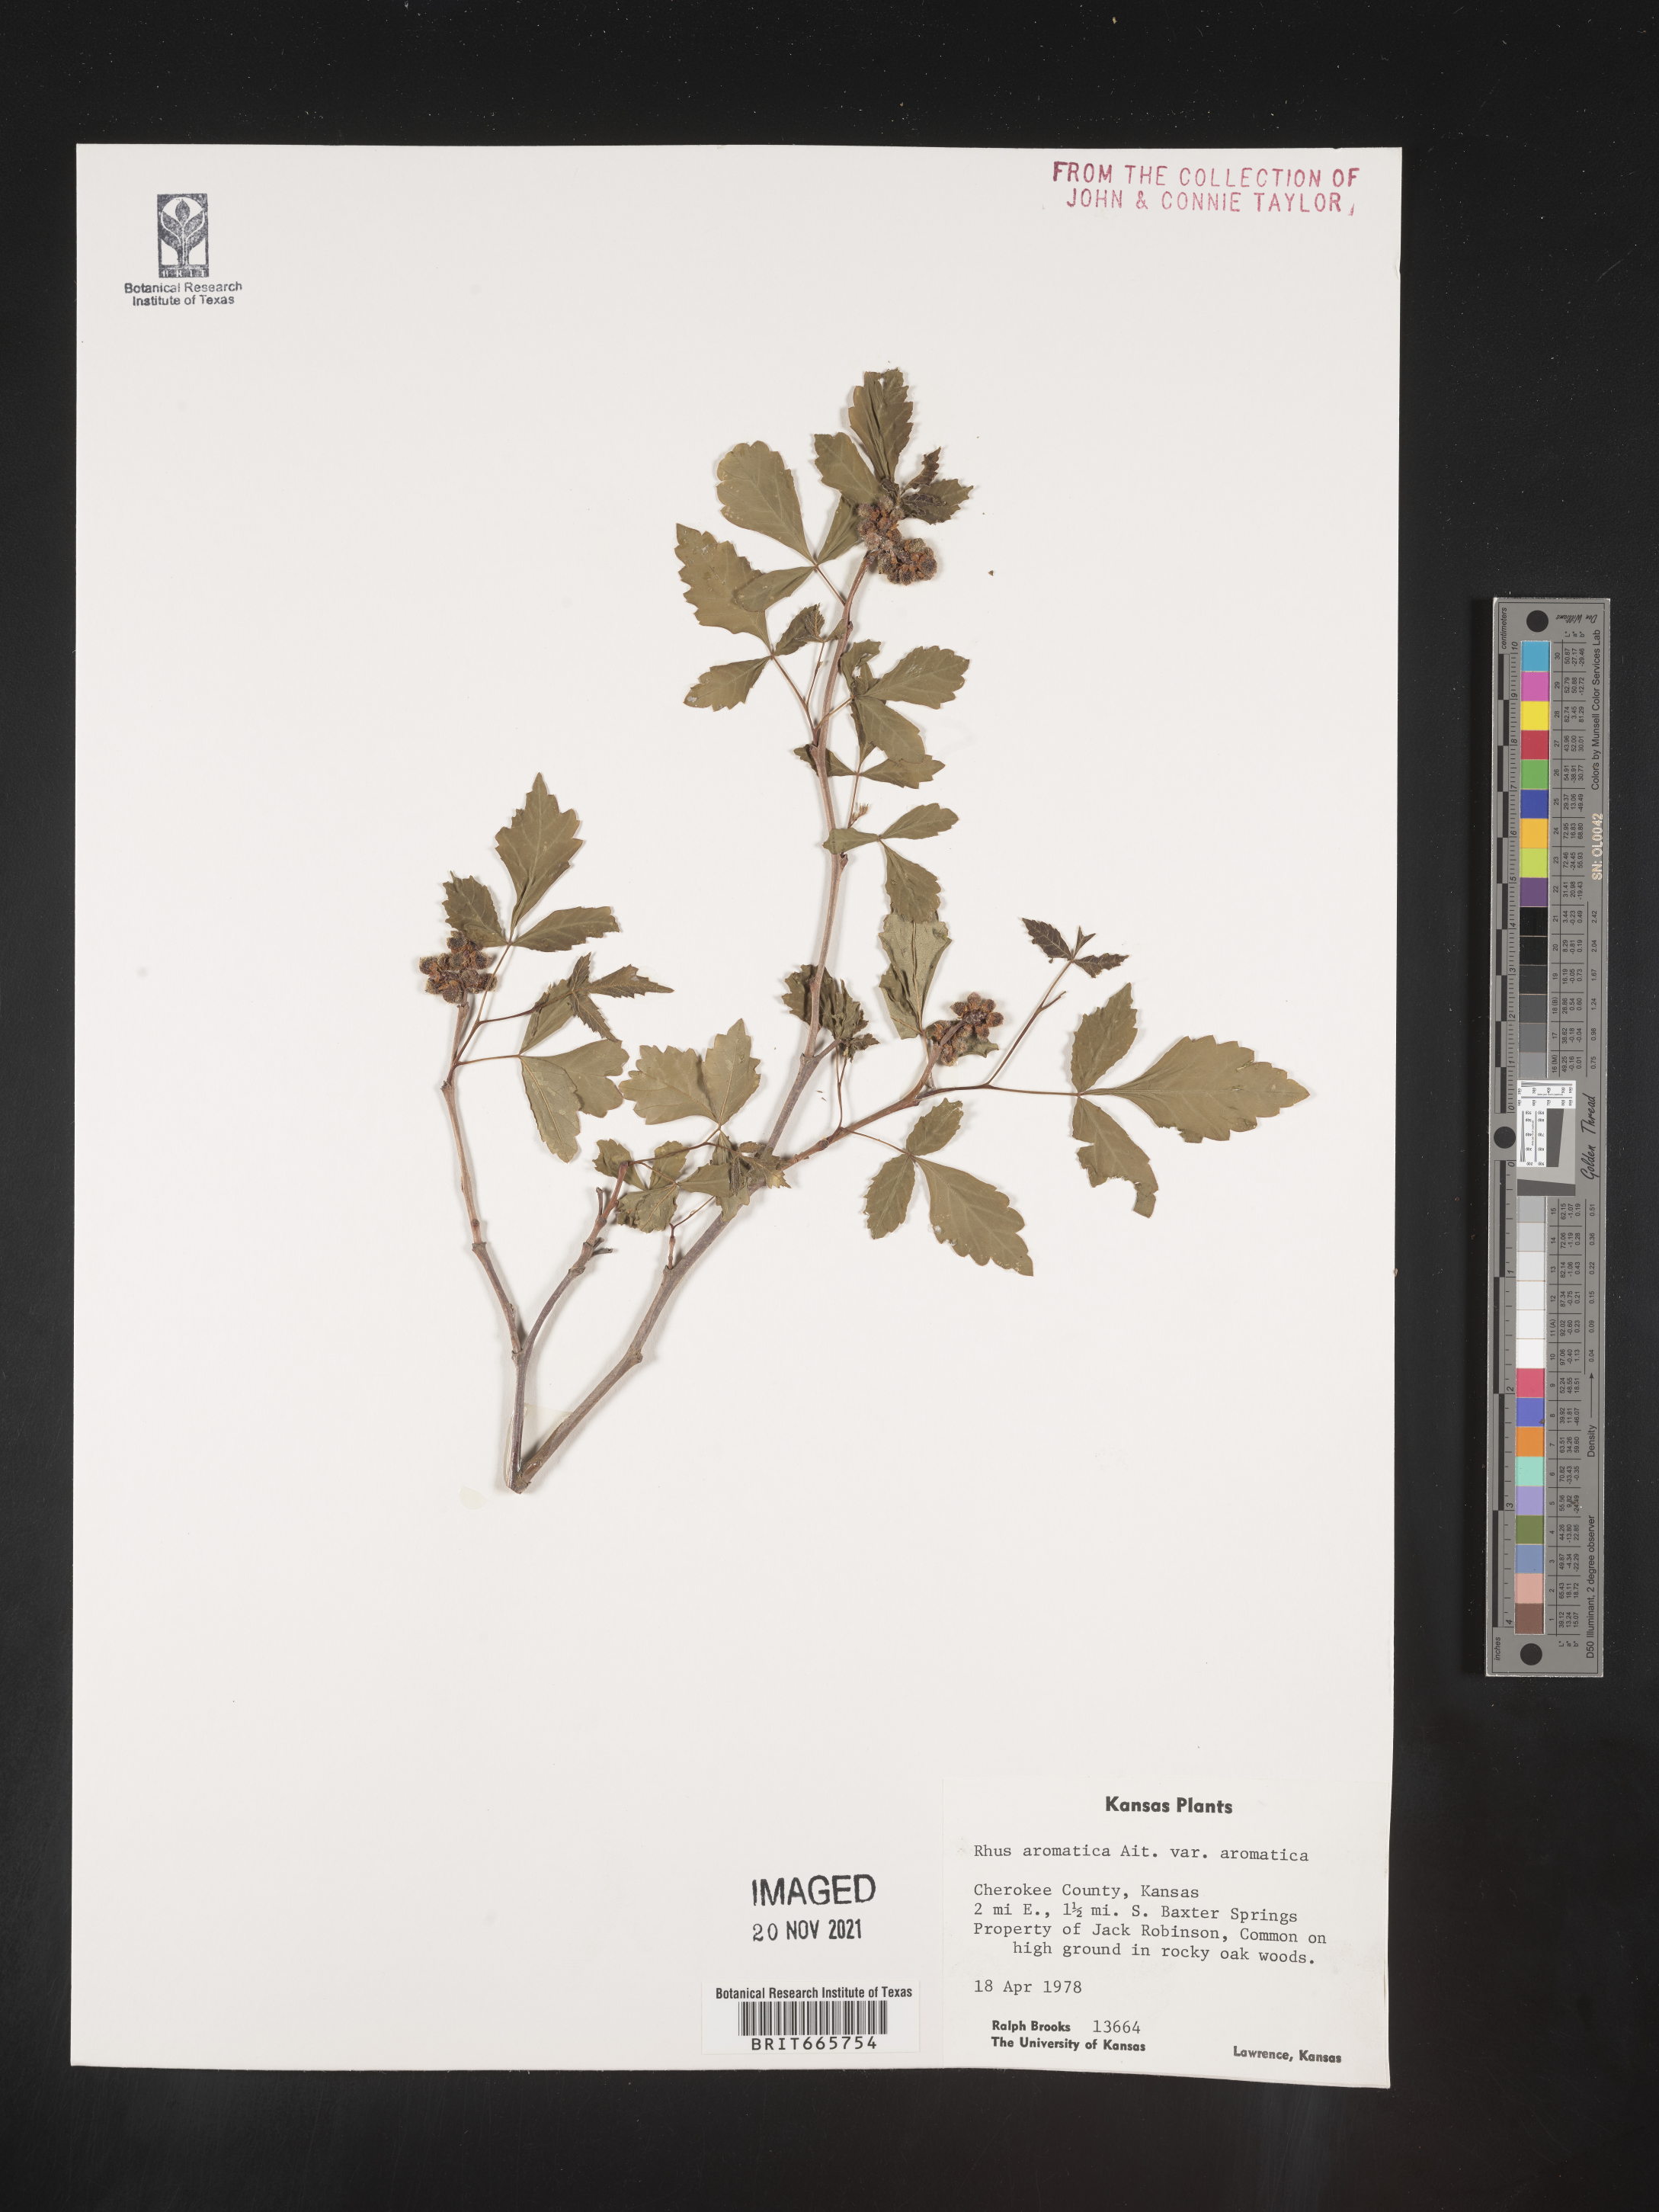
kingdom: Plantae
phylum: Tracheophyta
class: Magnoliopsida
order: Sapindales
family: Anacardiaceae
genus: Rhus
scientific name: Rhus aromatica
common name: Aromatic sumac
